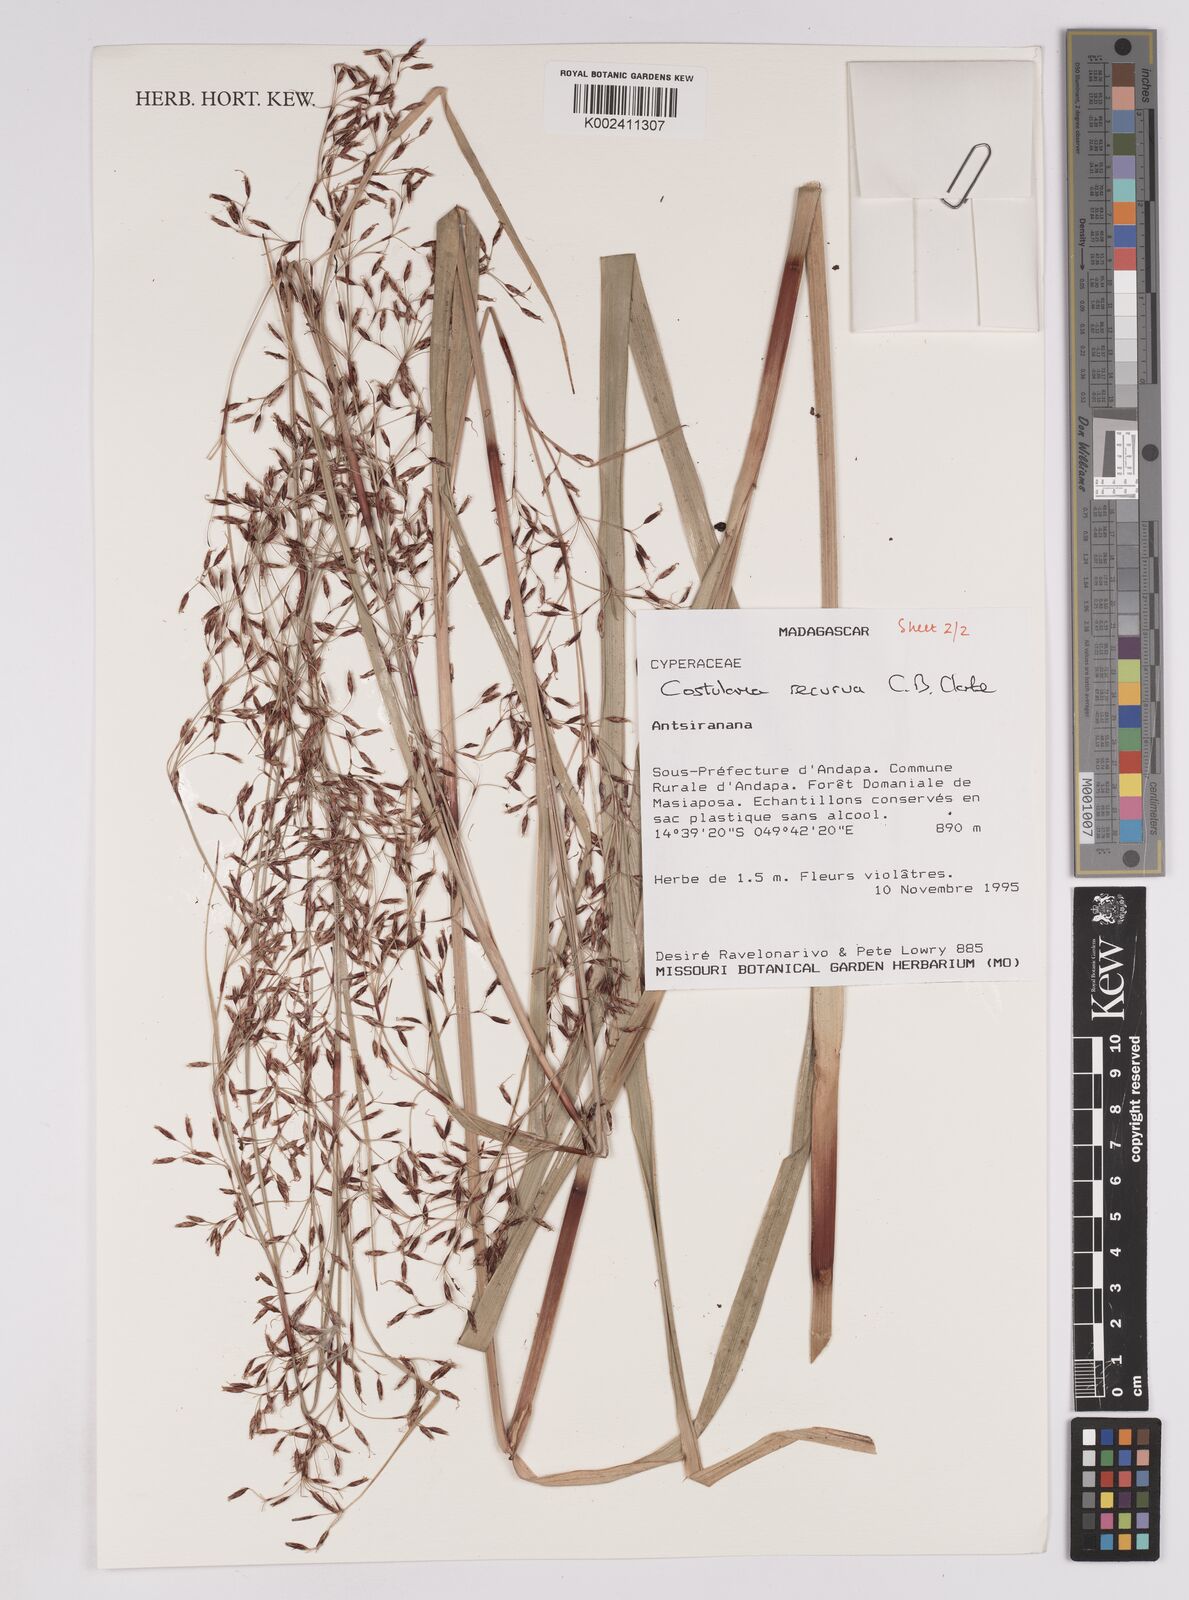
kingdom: Plantae
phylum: Tracheophyta
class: Liliopsida
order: Poales
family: Cyperaceae
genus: Costularia
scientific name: Costularia purpurea
